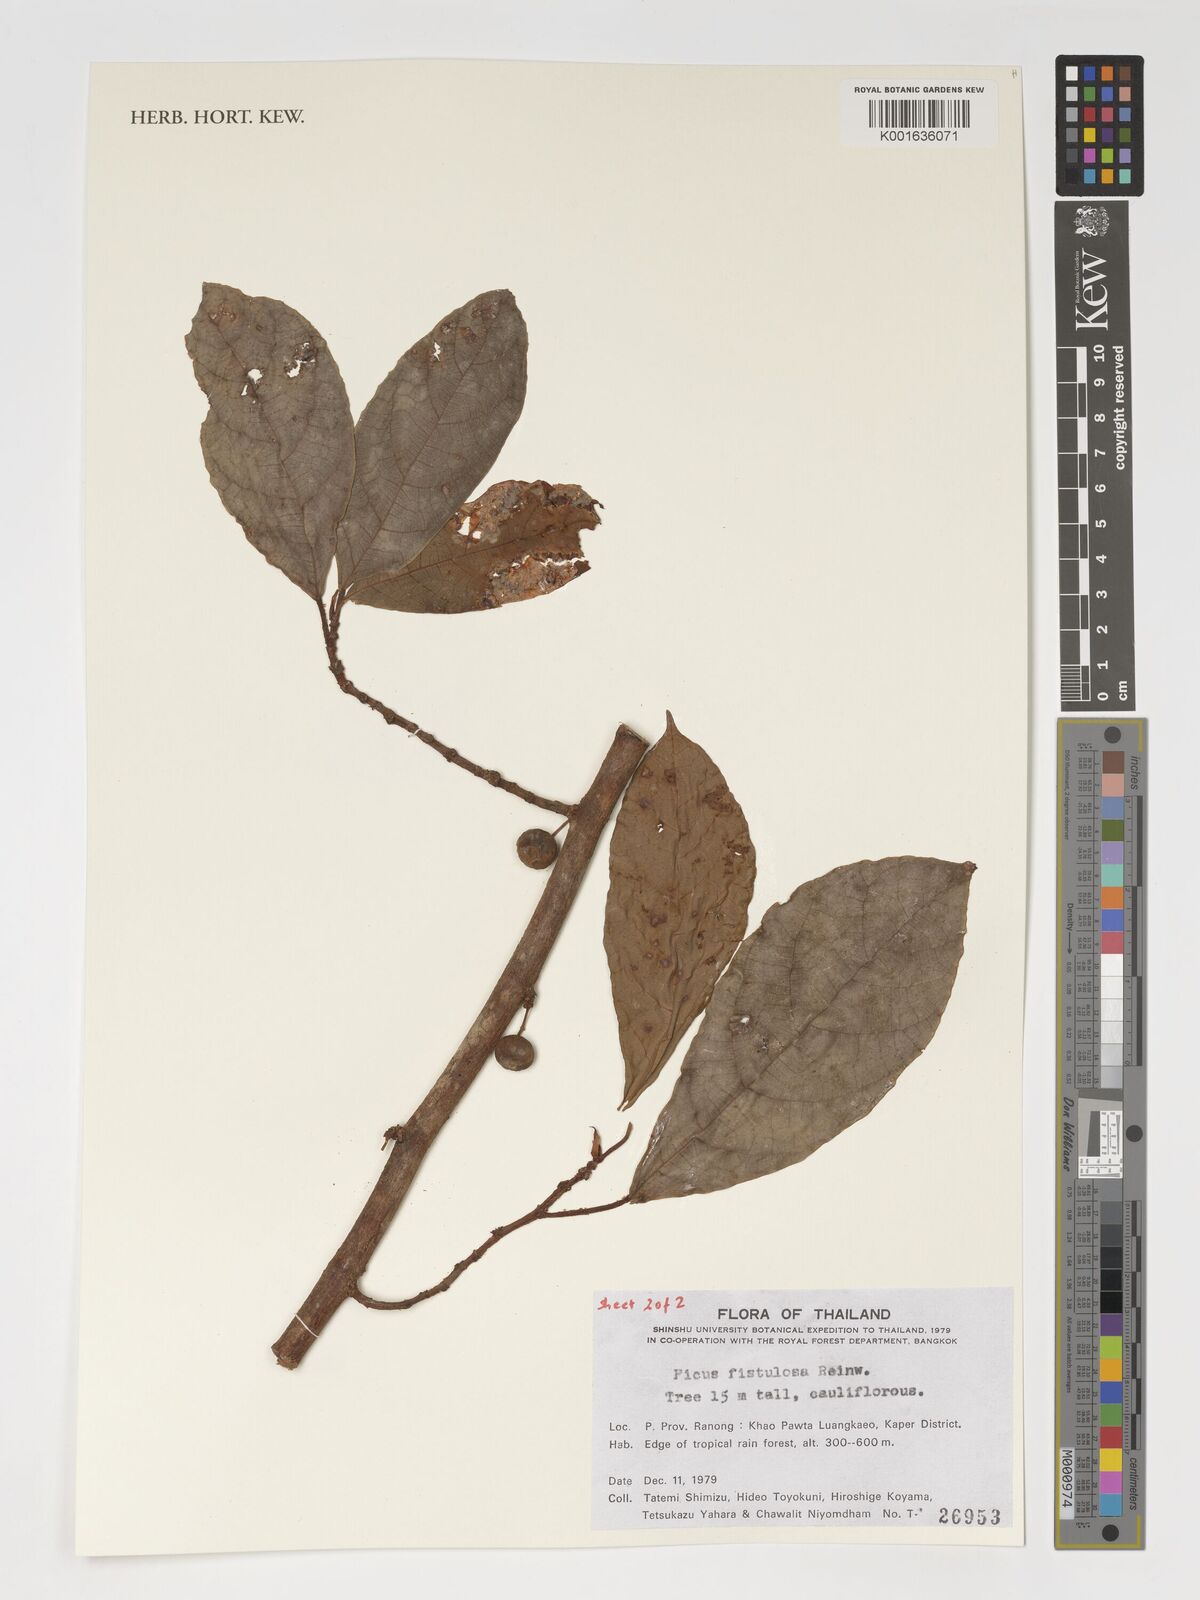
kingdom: Plantae
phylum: Tracheophyta
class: Magnoliopsida
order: Rosales
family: Moraceae
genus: Ficus
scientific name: Ficus fistulosa
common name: Figs
